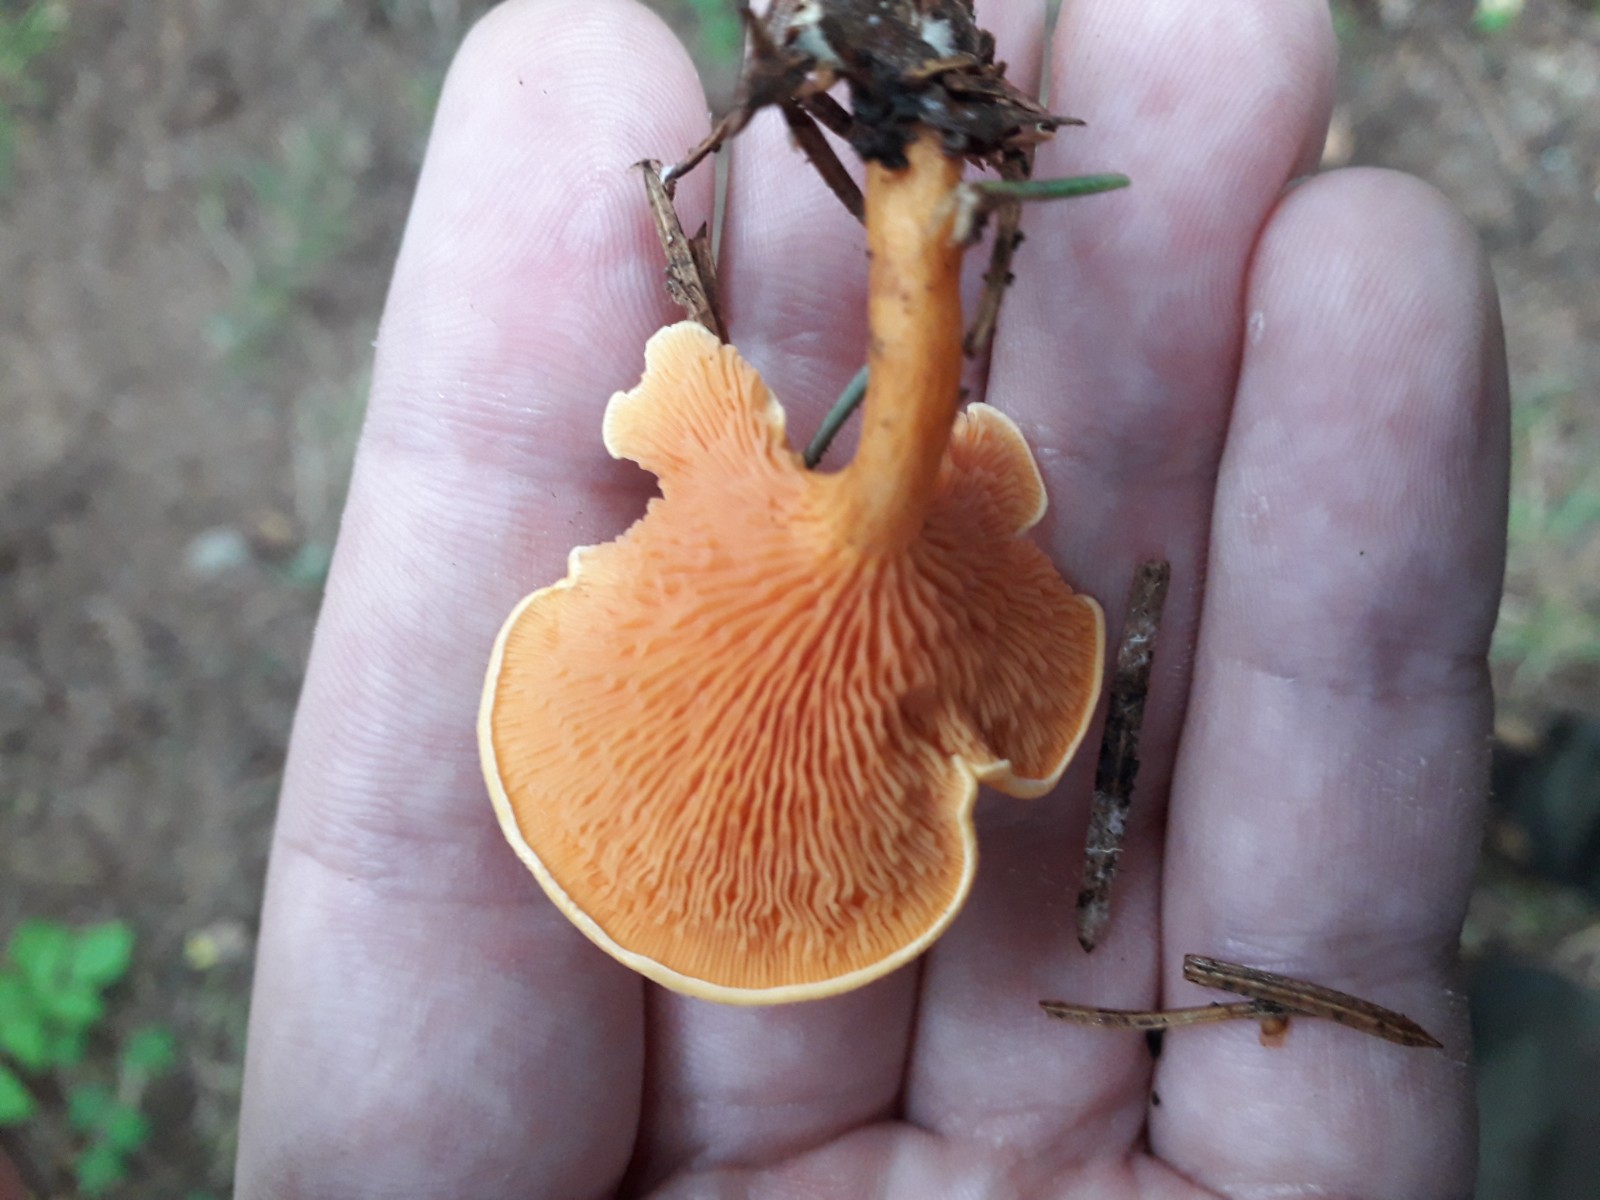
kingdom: Fungi
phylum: Basidiomycota
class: Agaricomycetes
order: Boletales
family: Hygrophoropsidaceae
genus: Hygrophoropsis
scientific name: Hygrophoropsis aurantiaca
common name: almindelig orangekantarel
